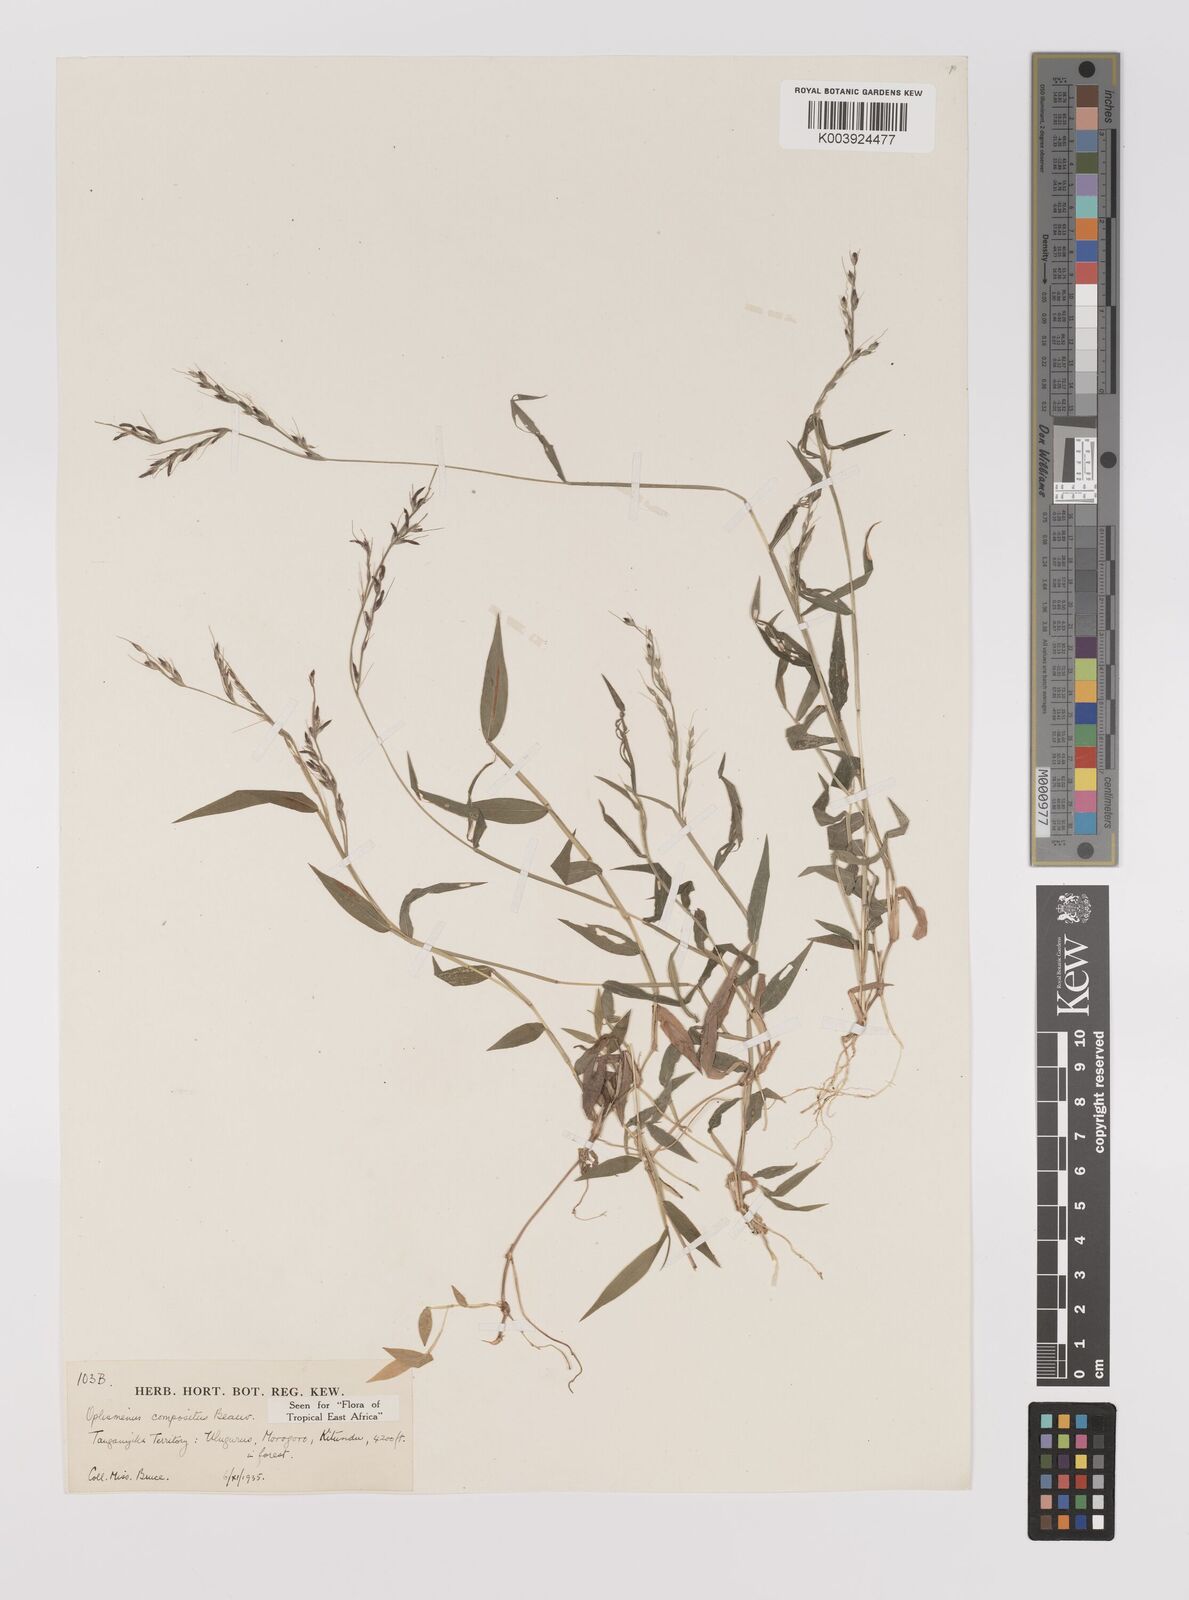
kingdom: Plantae
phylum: Tracheophyta
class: Liliopsida
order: Poales
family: Poaceae
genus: Oplismenus
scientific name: Oplismenus compositus
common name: Running mountain grass
